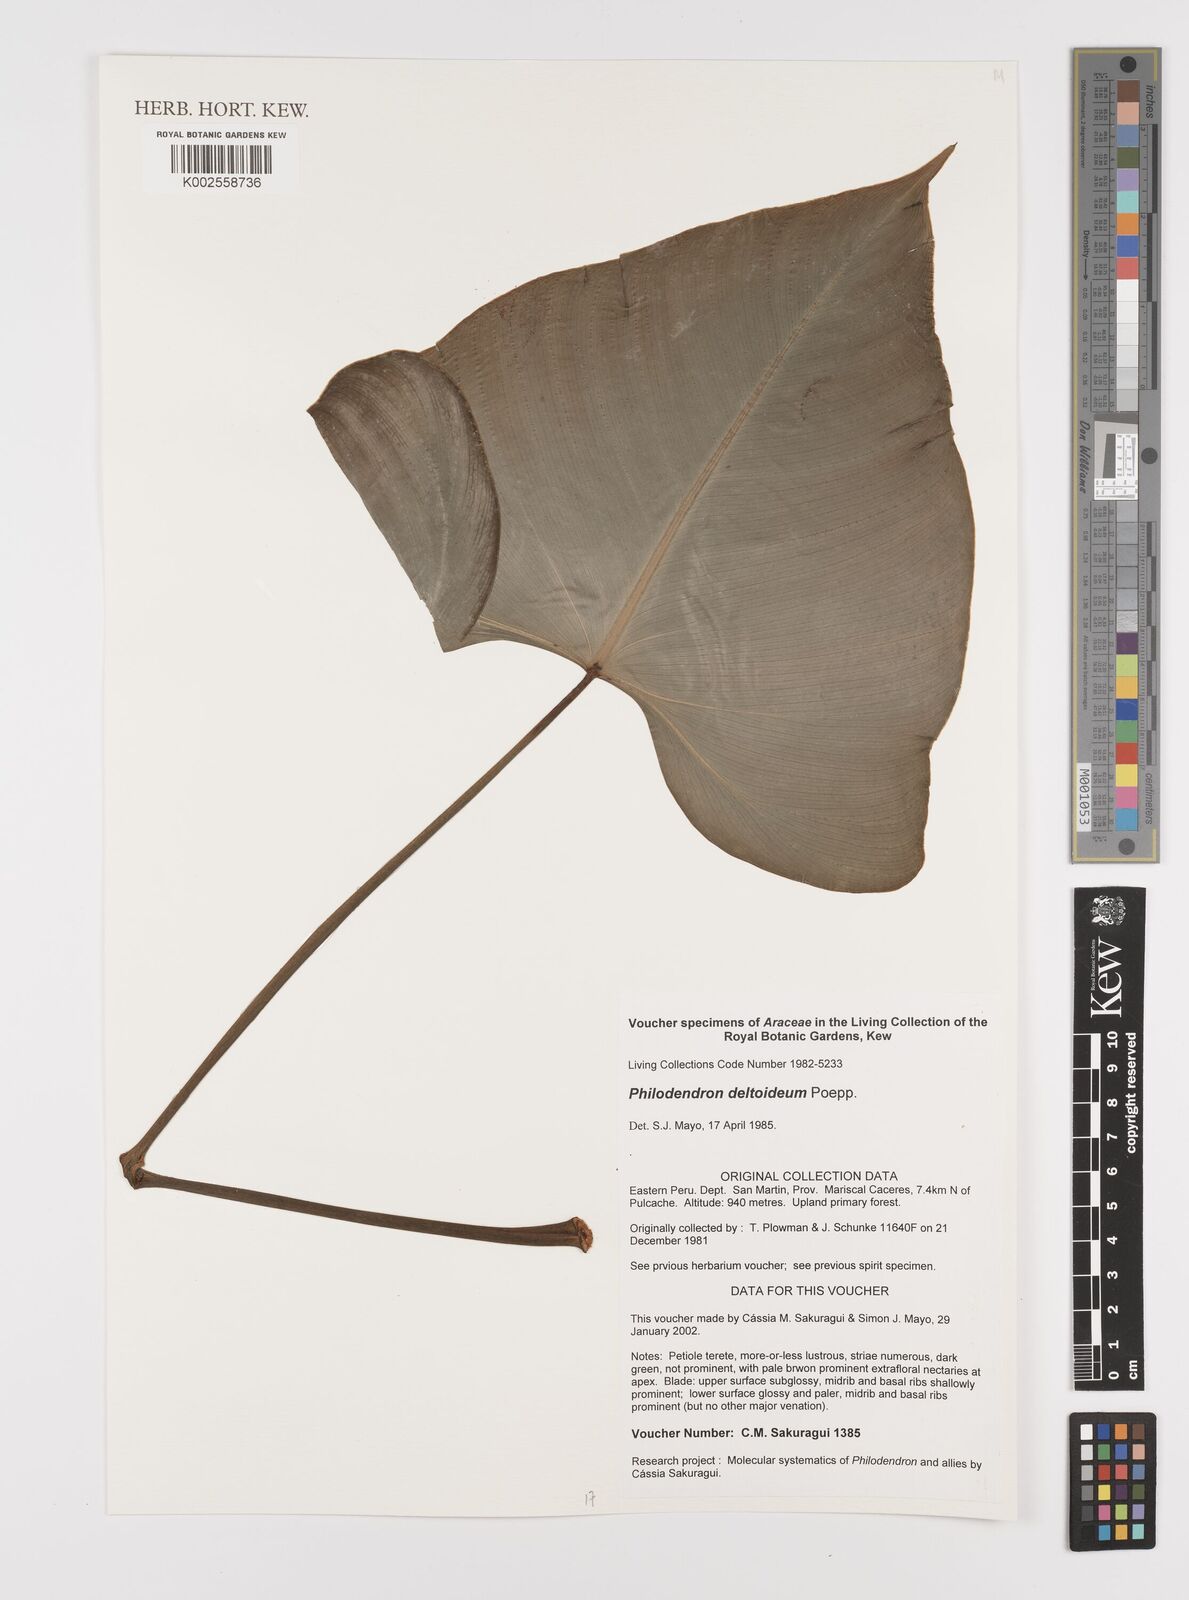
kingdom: Plantae
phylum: Tracheophyta
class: Liliopsida
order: Alismatales
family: Araceae
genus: Philodendron
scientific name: Philodendron deltoideum
